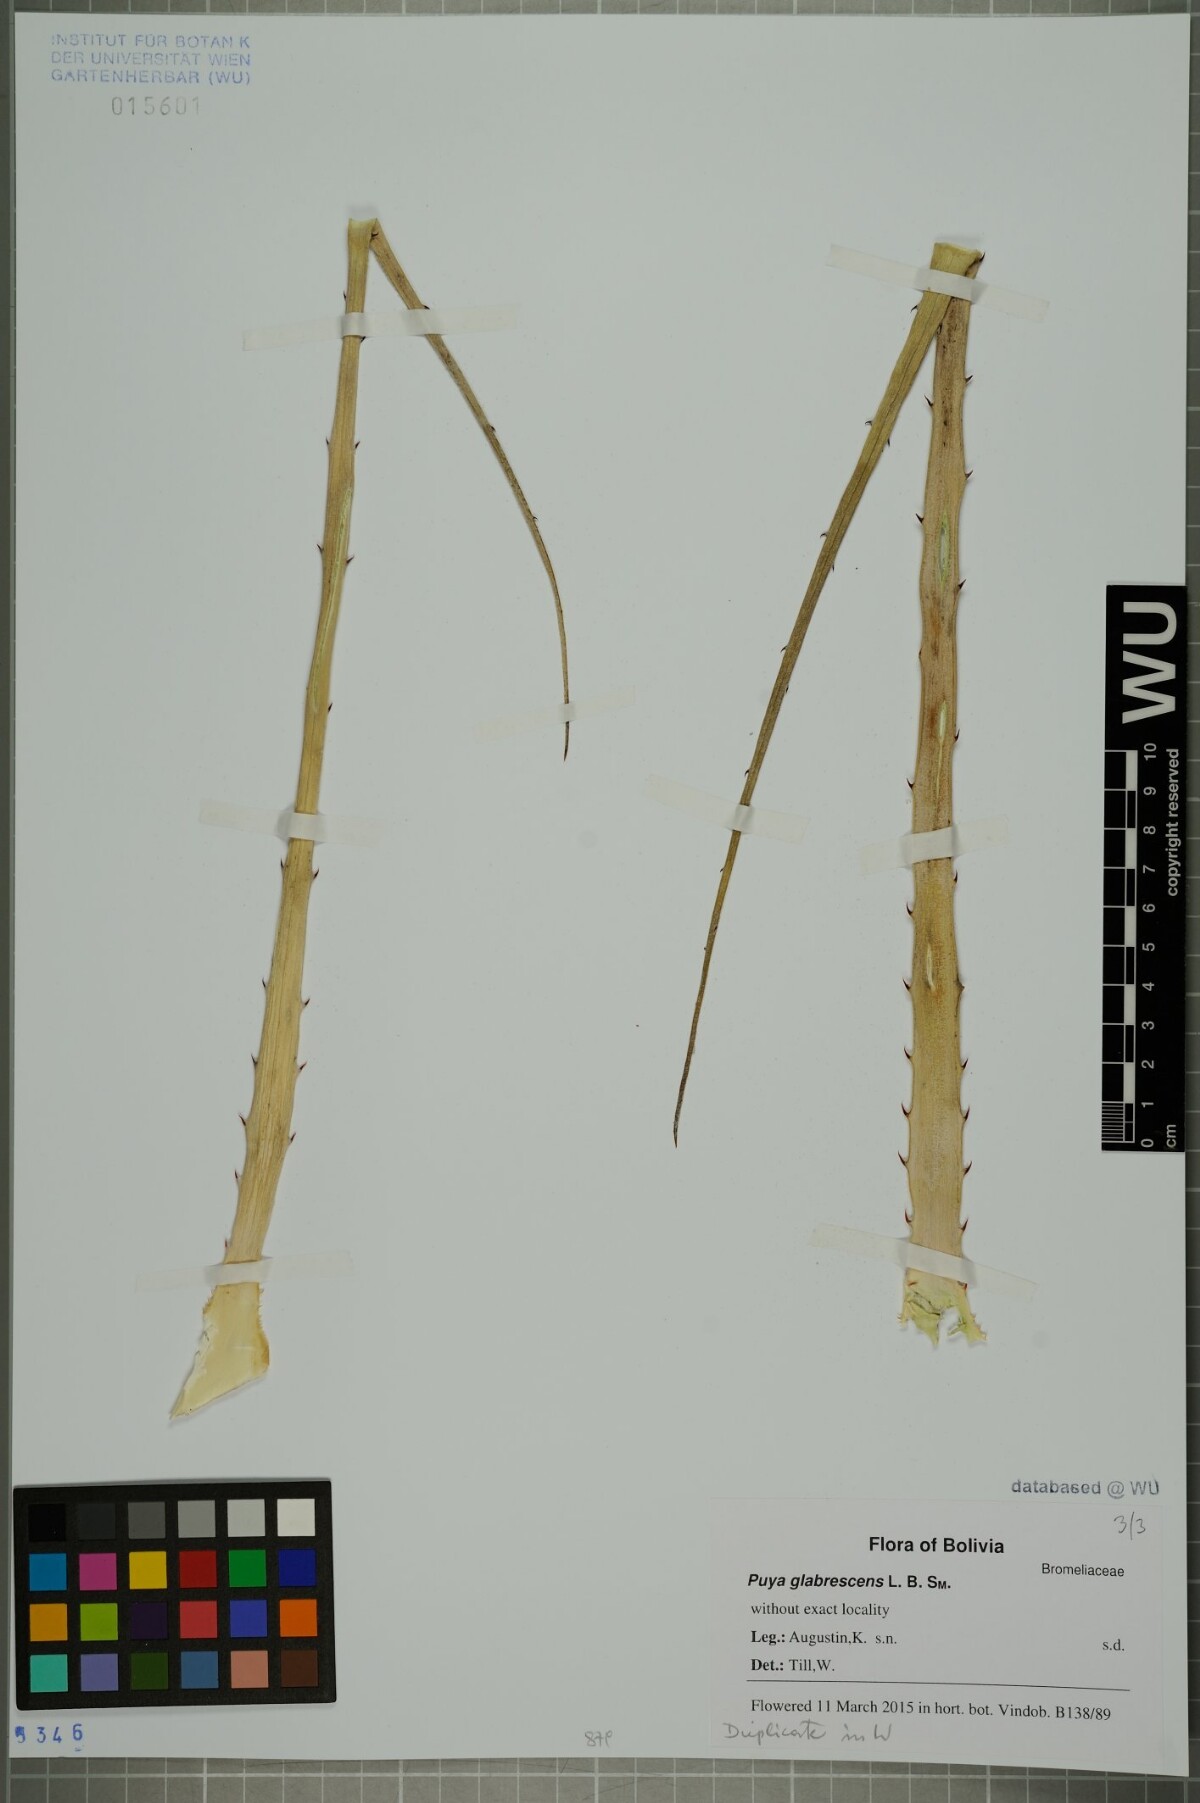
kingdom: Plantae
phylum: Tracheophyta
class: Liliopsida
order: Poales
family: Bromeliaceae
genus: Puya
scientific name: Puya glabrescens
